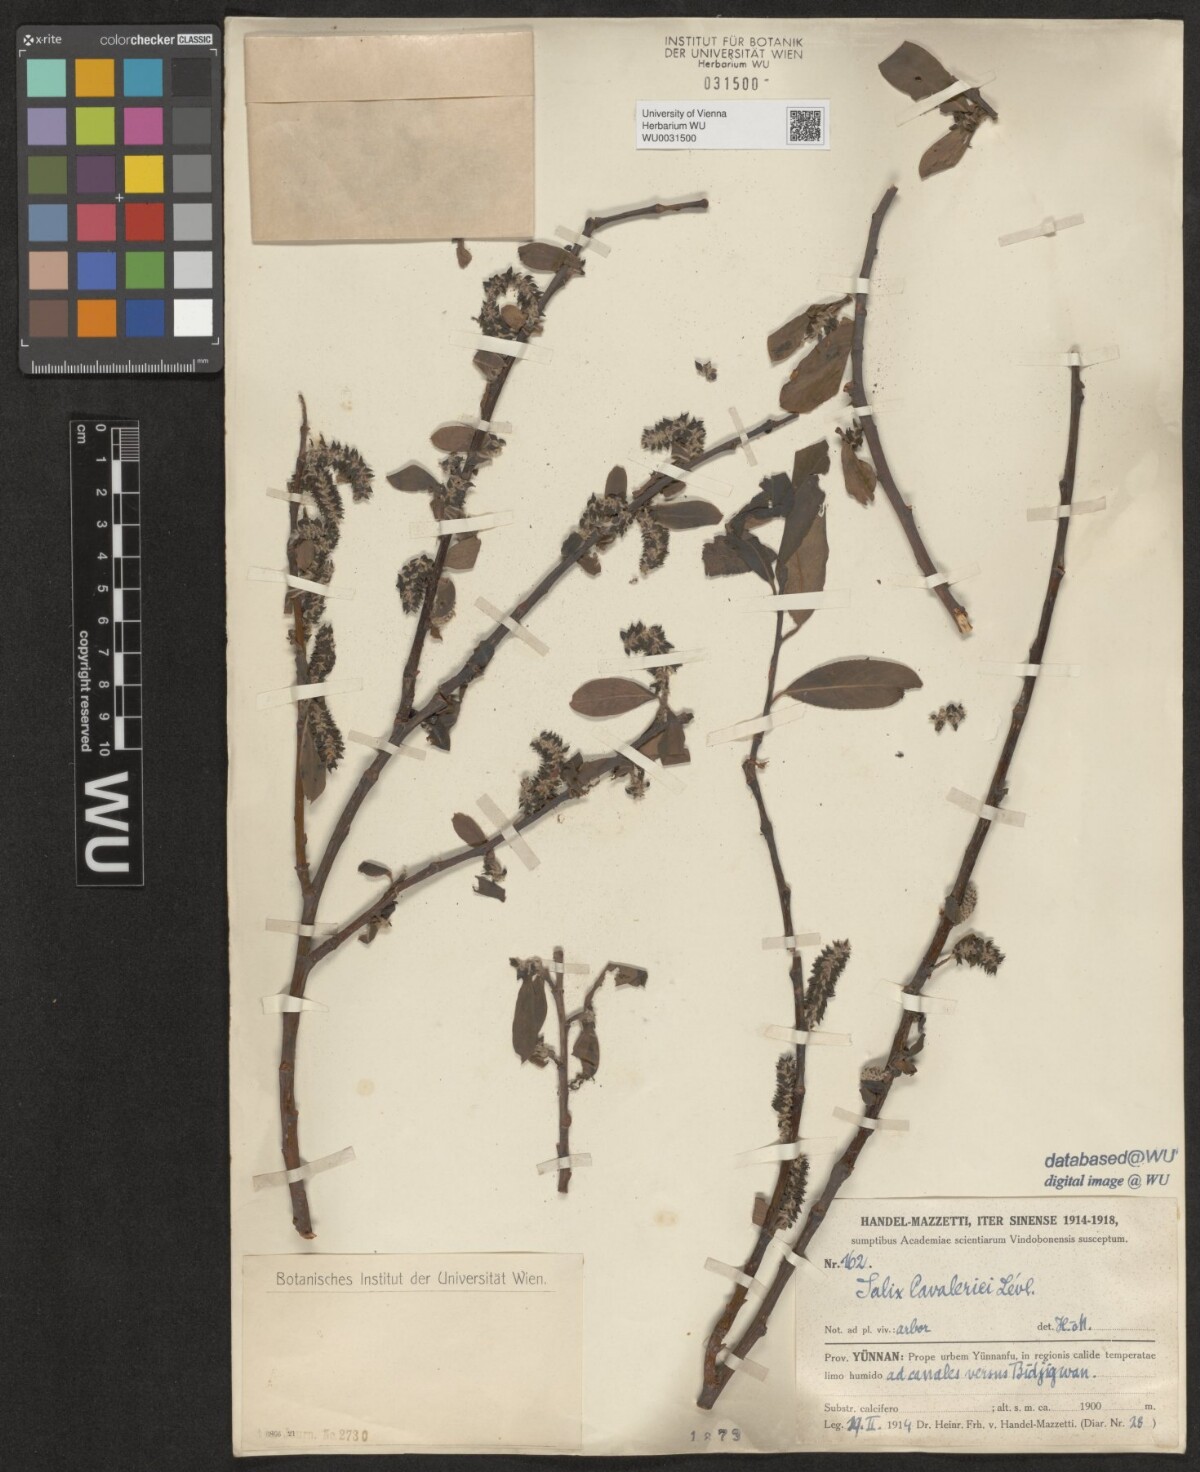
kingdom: Plantae
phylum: Tracheophyta
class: Magnoliopsida
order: Malpighiales
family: Salicaceae
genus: Salix
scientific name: Salix cavaleriei
